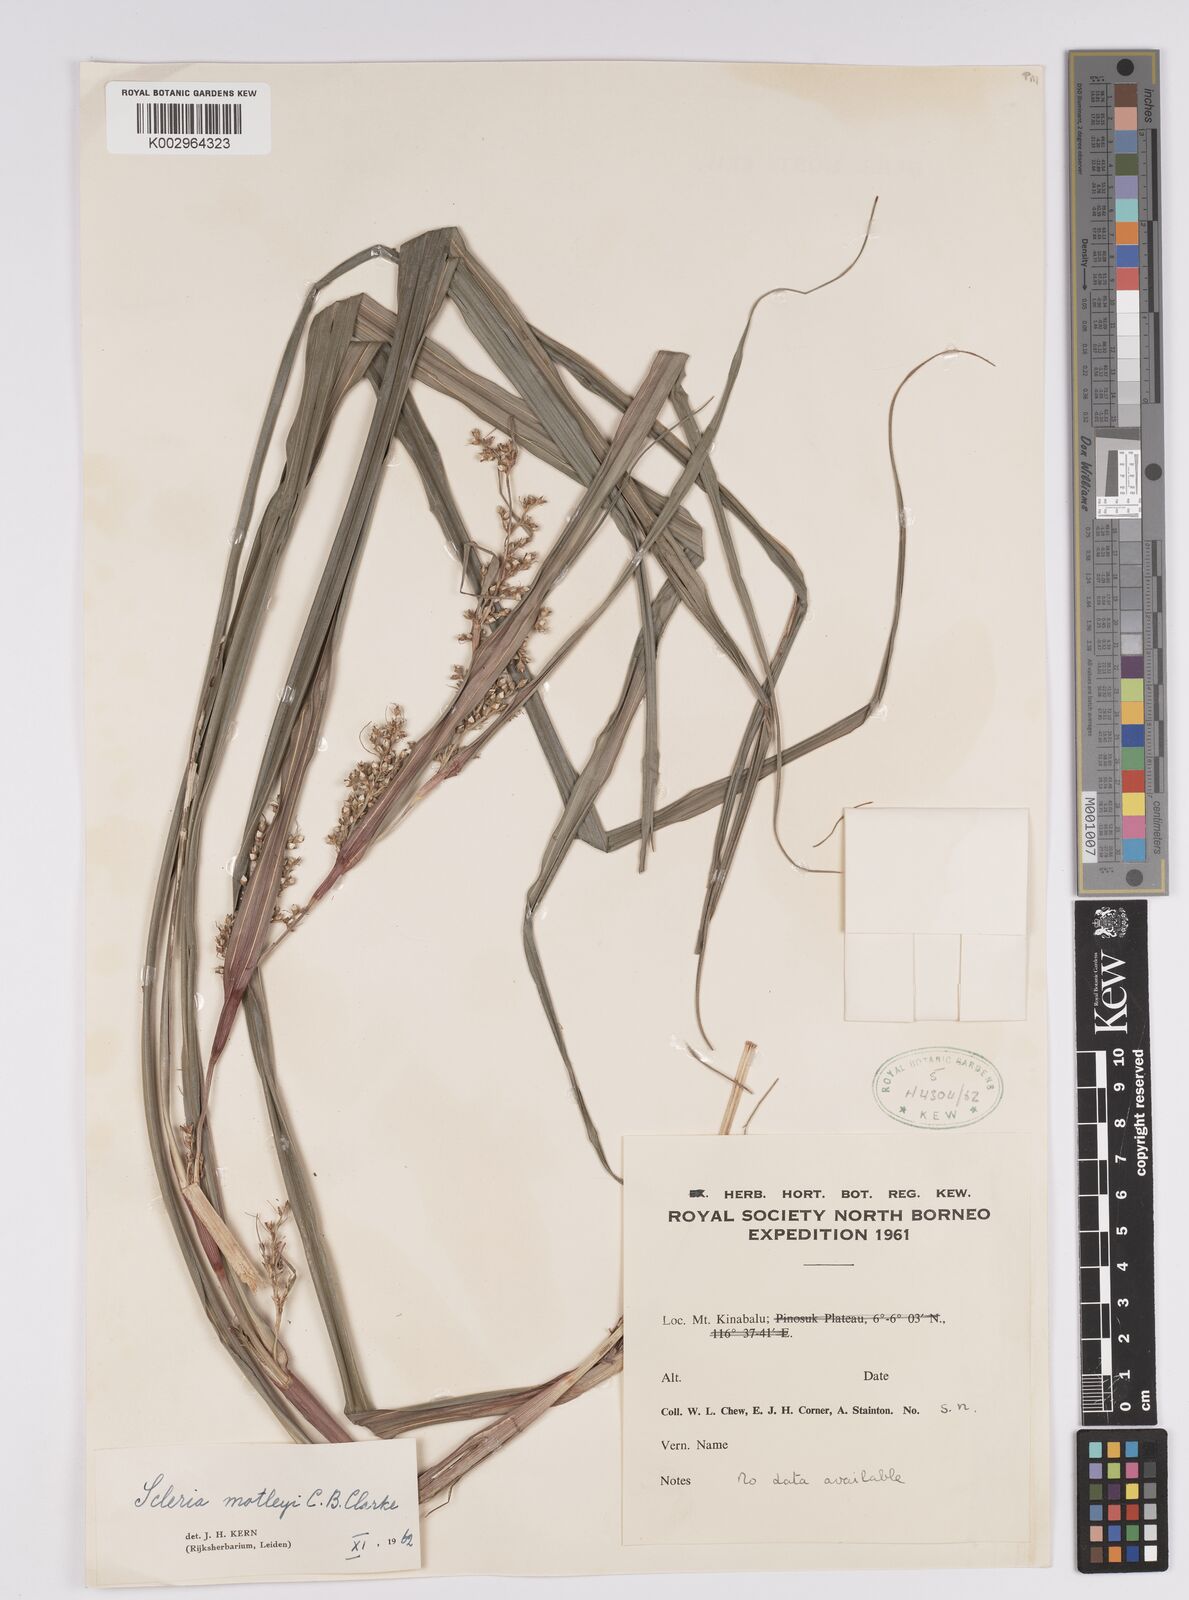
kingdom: Plantae
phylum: Tracheophyta
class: Liliopsida
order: Poales
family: Cyperaceae
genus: Scleria
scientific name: Scleria motleyi
